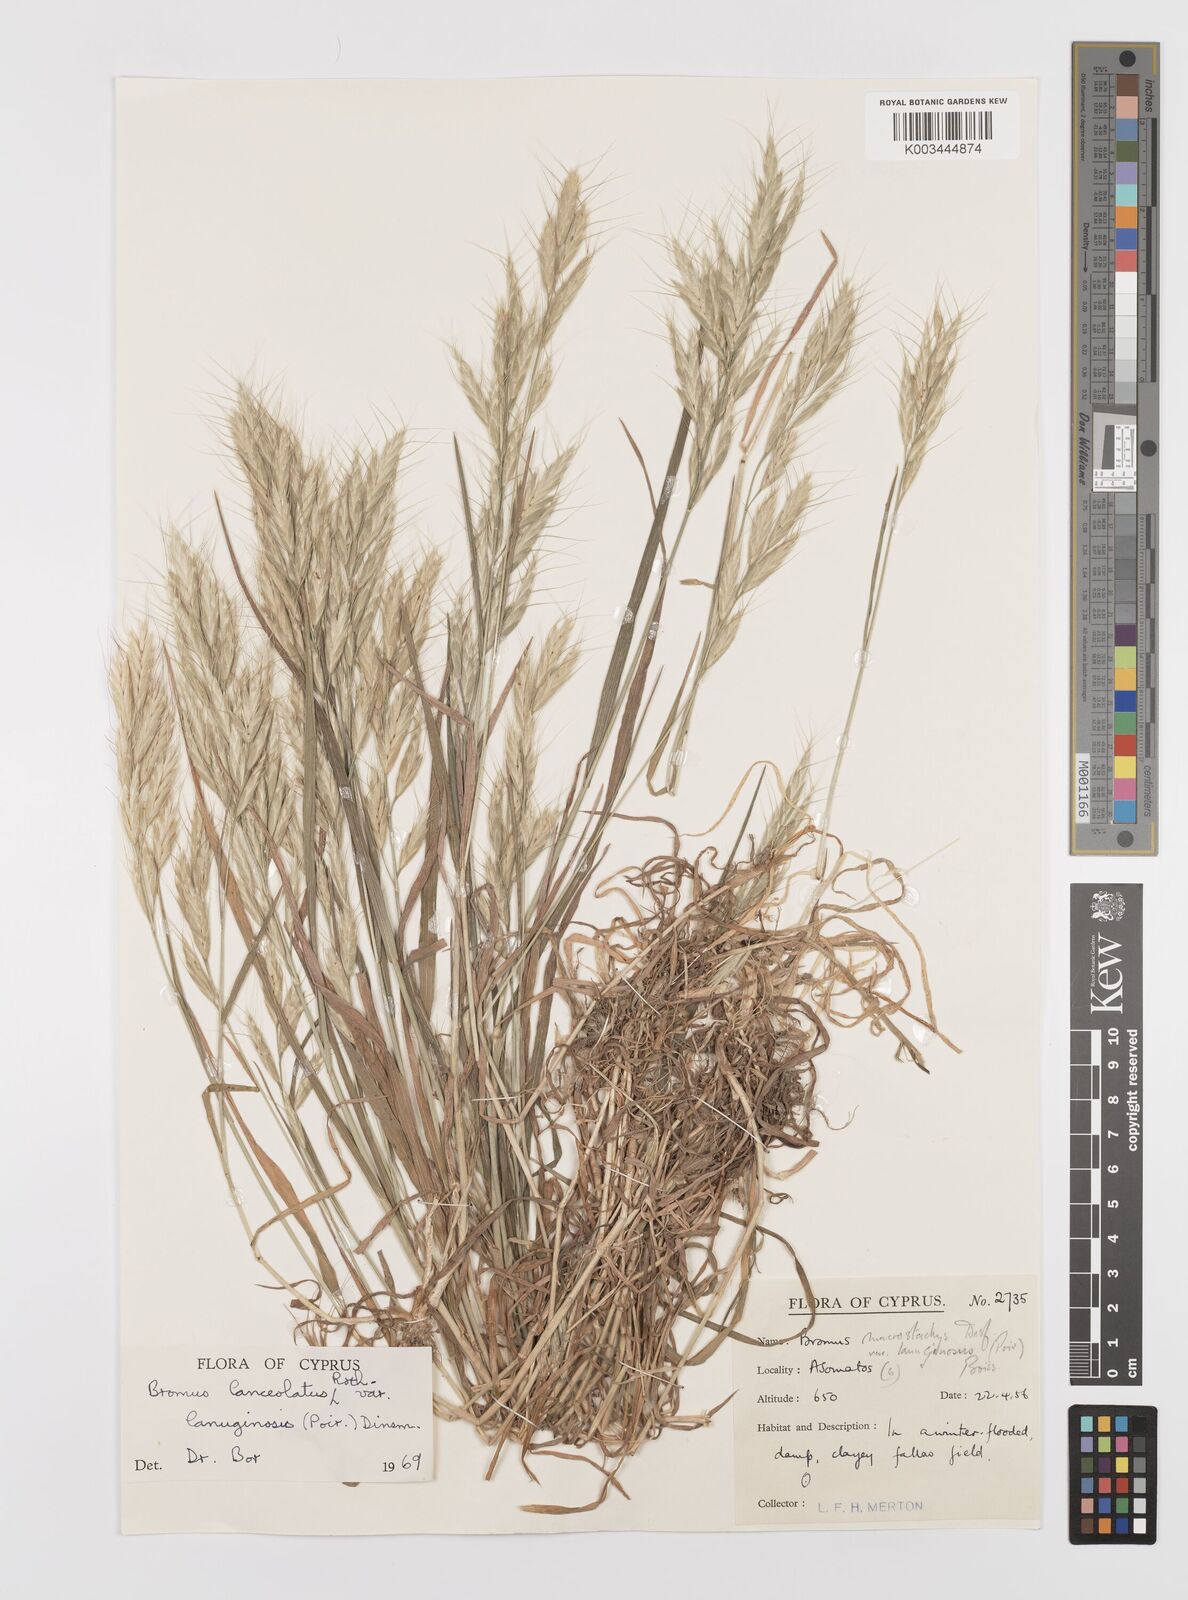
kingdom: Plantae
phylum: Tracheophyta
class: Liliopsida
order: Poales
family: Poaceae
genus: Bromus
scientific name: Bromus lanceolatus
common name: Mediterranean brome
